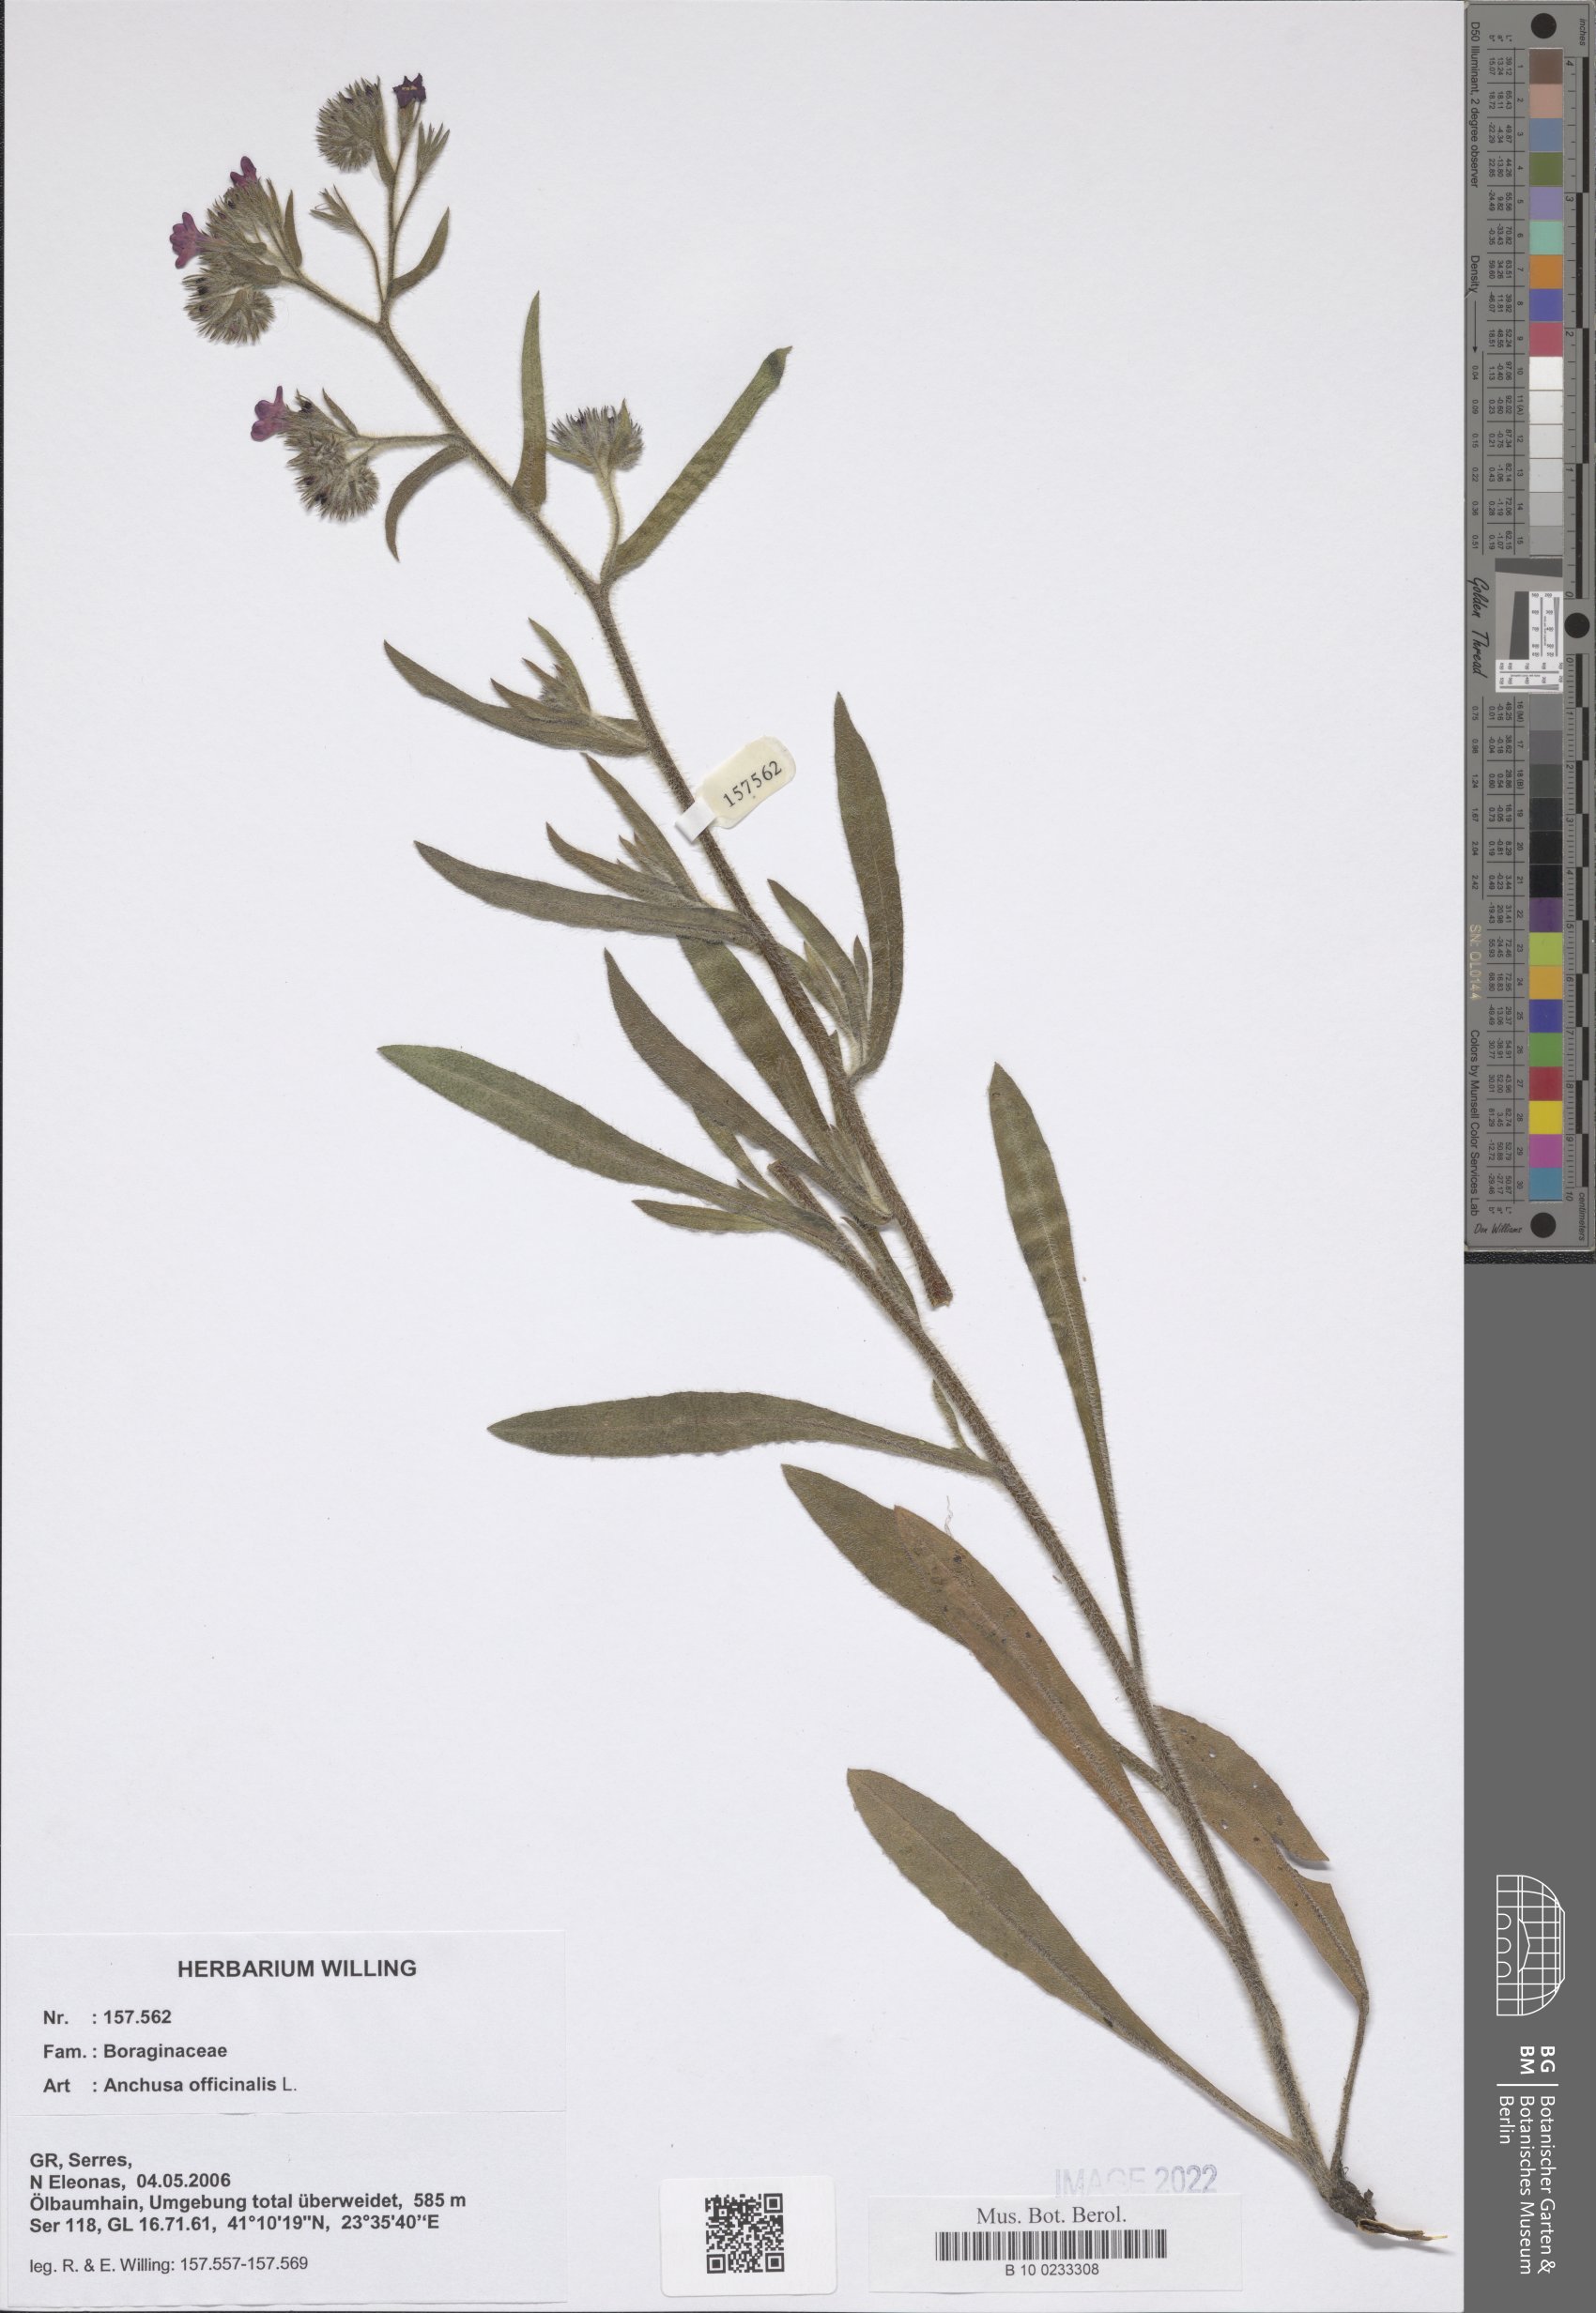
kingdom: Plantae
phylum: Tracheophyta
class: Magnoliopsida
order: Boraginales
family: Boraginaceae
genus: Anchusa
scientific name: Anchusa officinalis
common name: Alkanet
